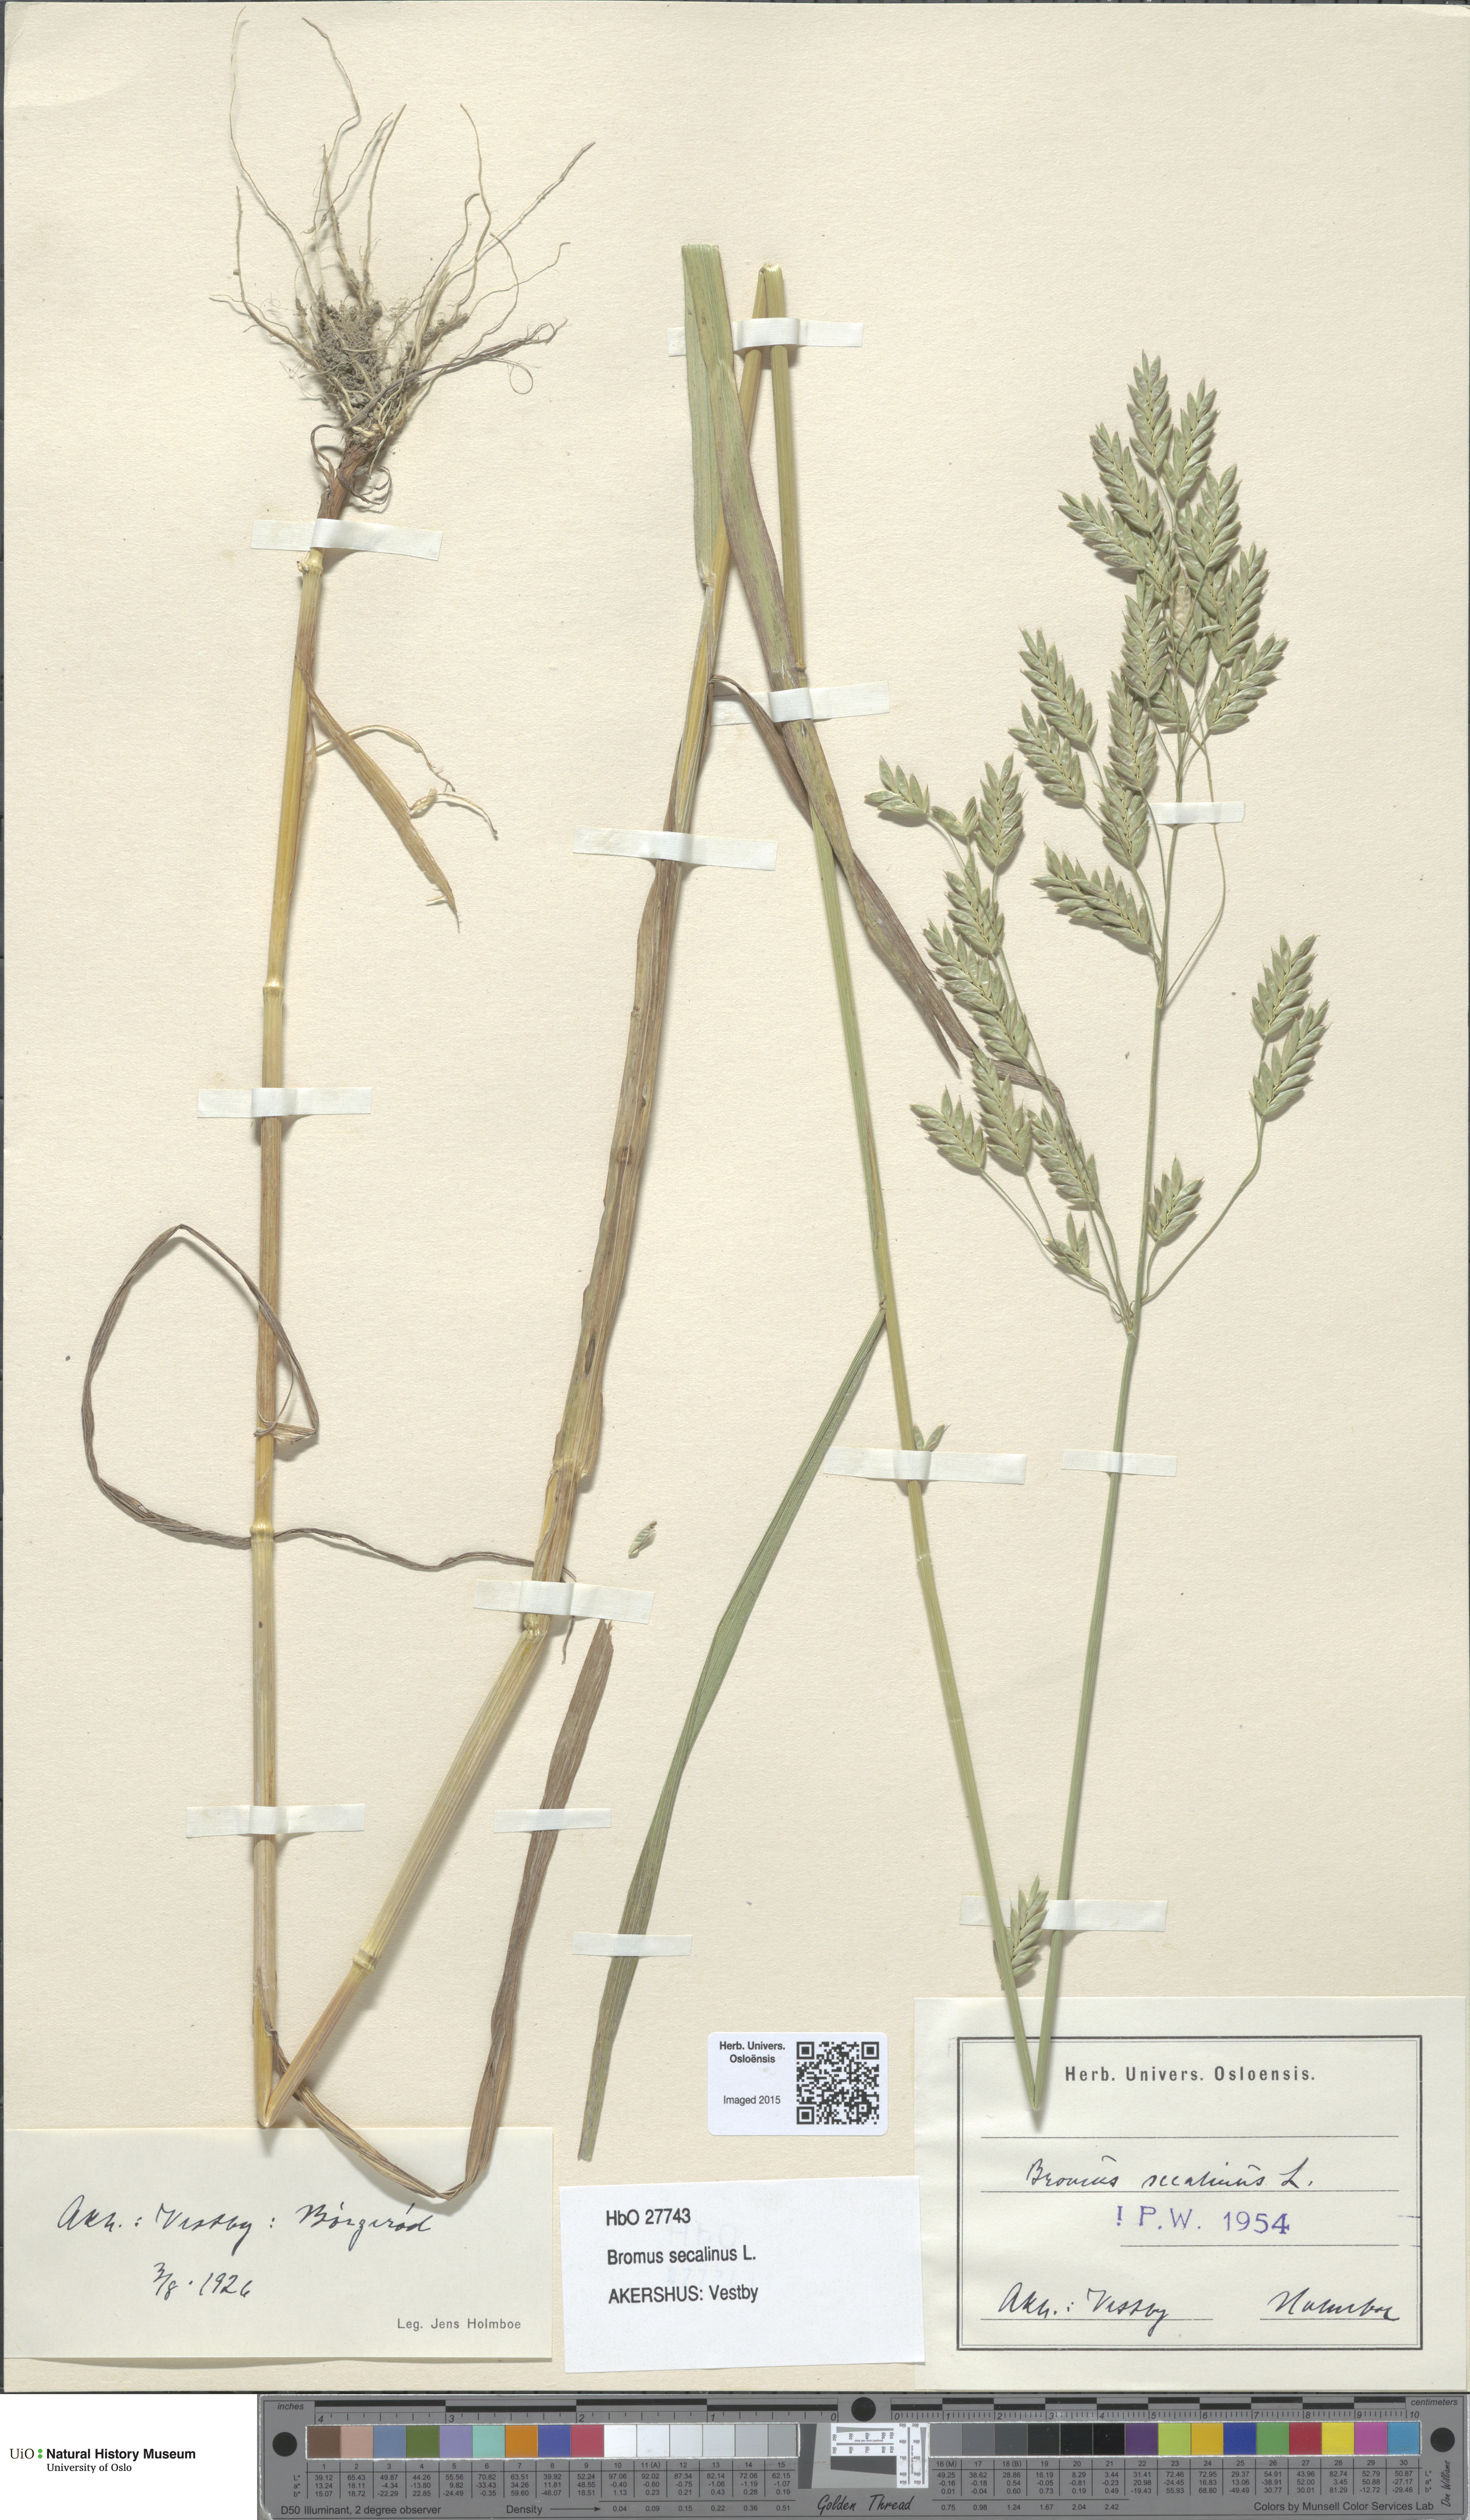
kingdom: Plantae
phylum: Tracheophyta
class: Liliopsida
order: Poales
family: Poaceae
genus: Bromus
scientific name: Bromus secalinus
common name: Rye brome
